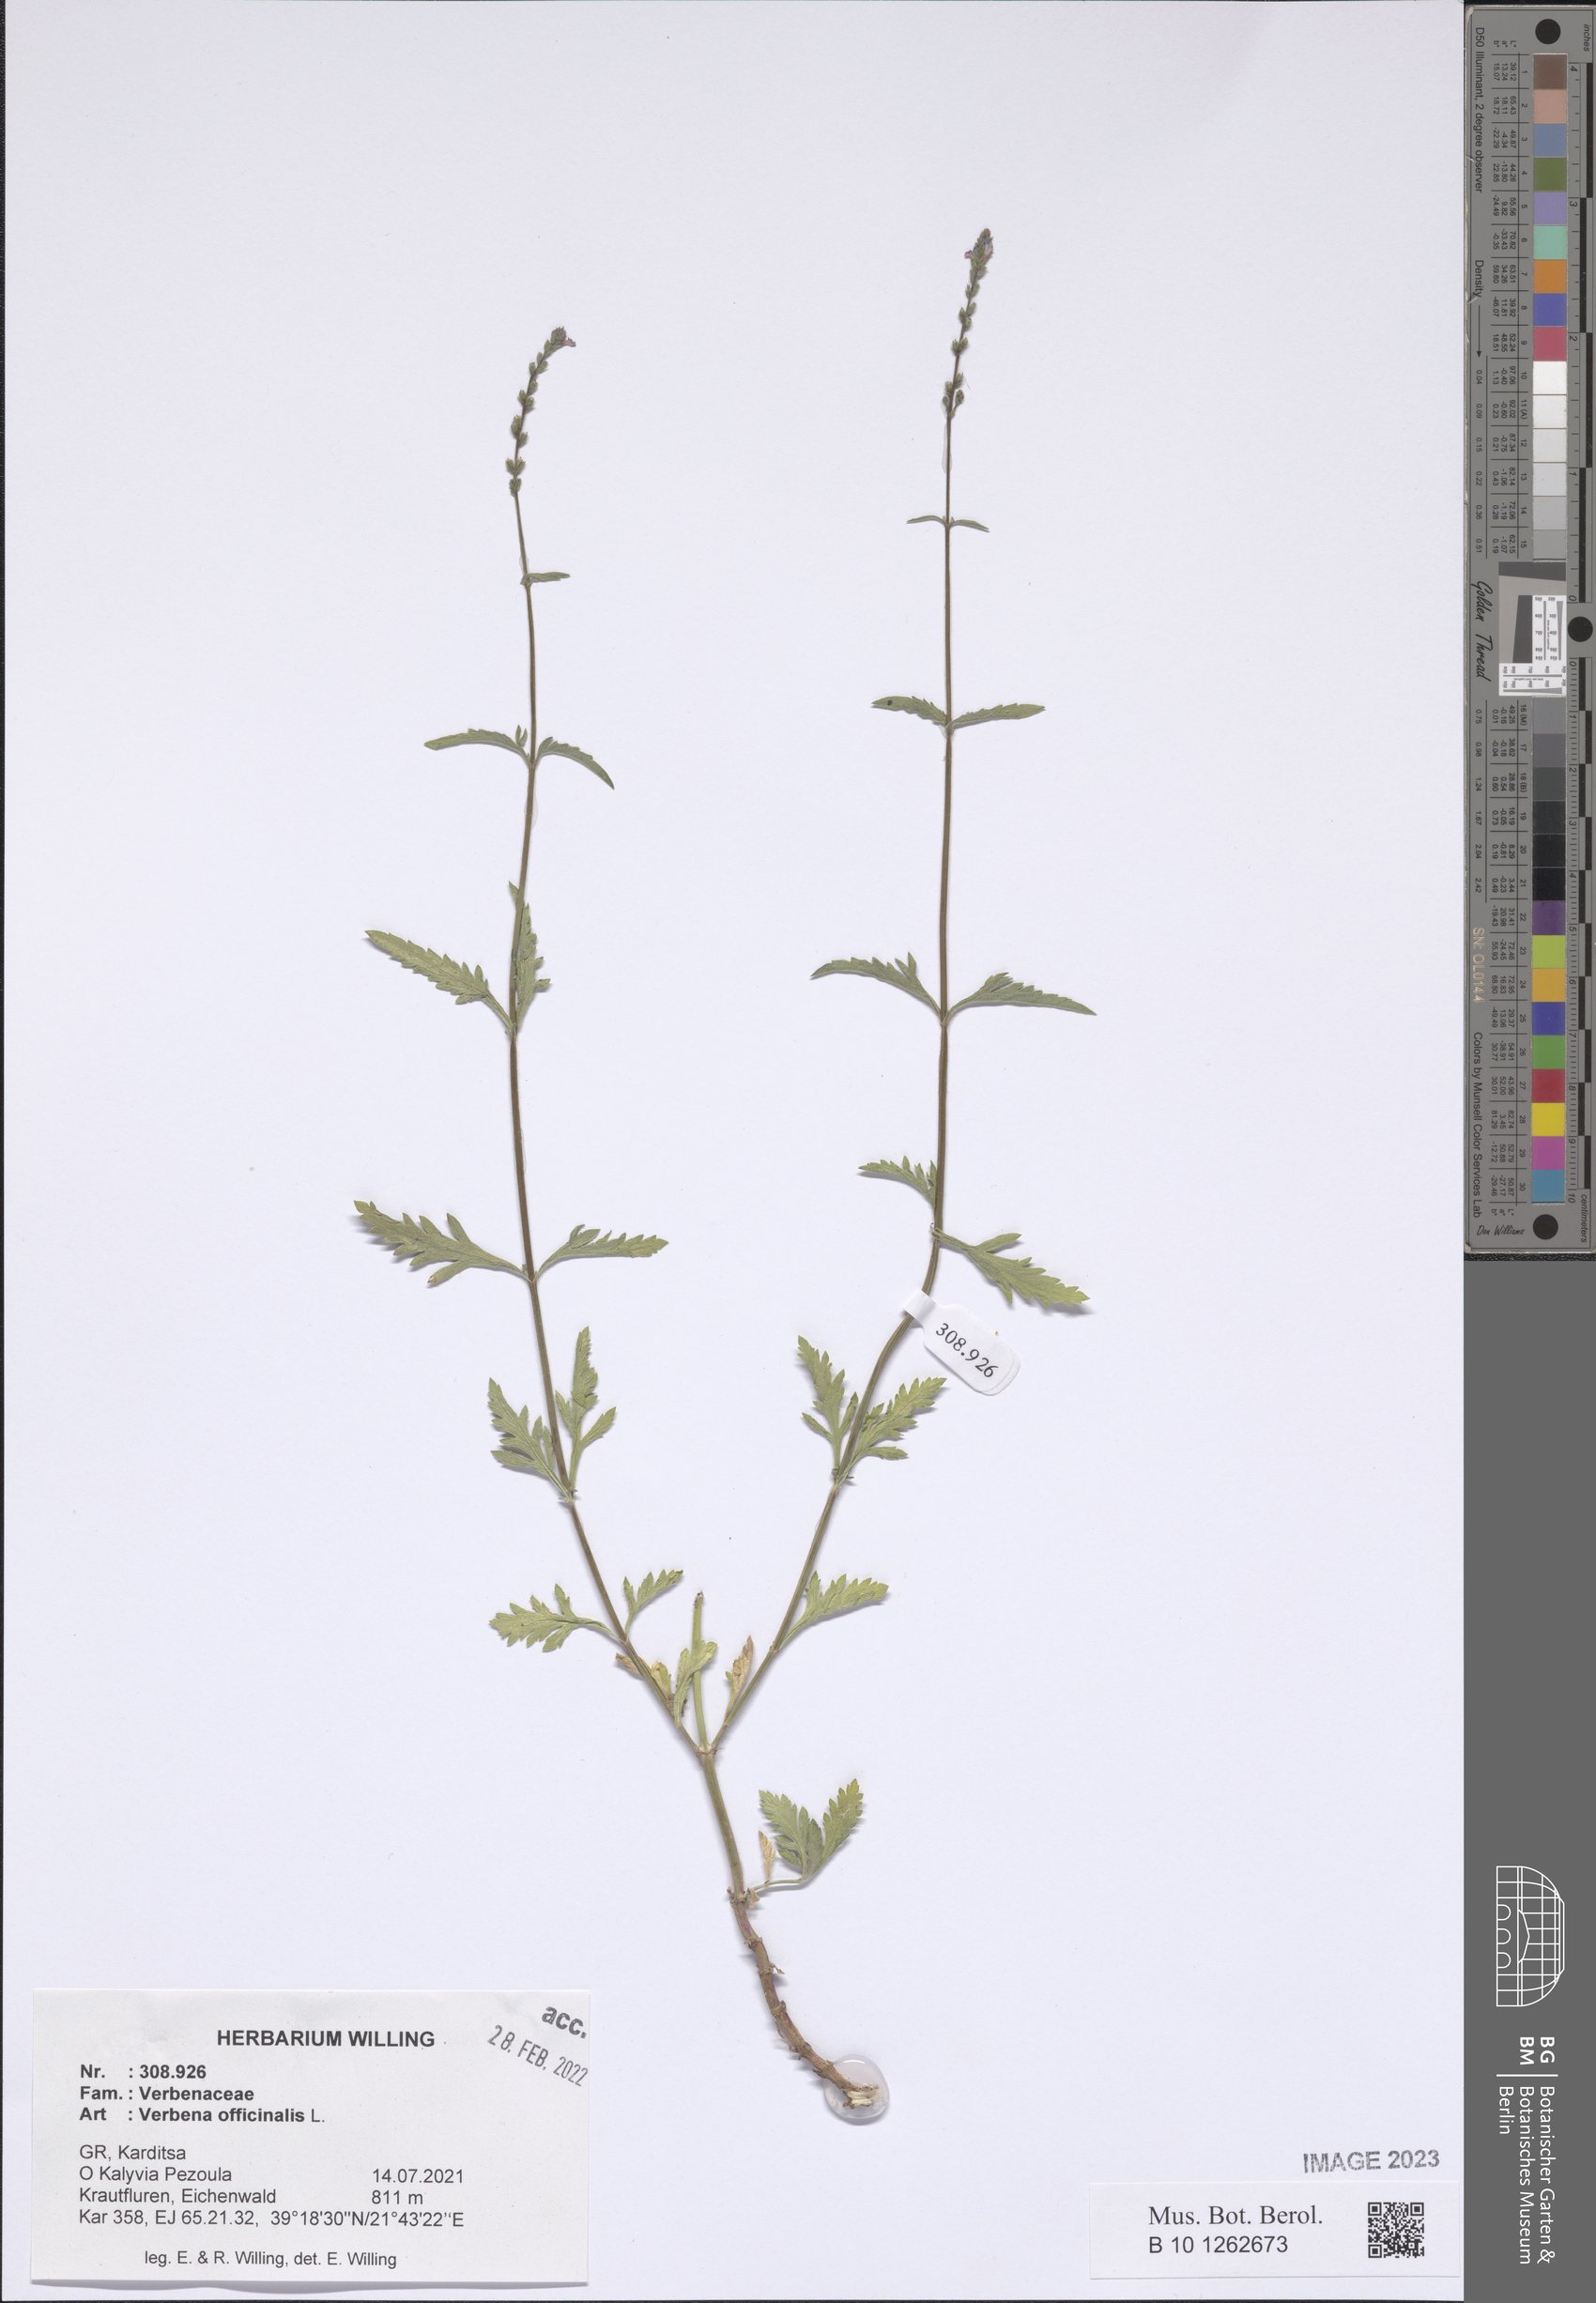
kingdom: Plantae
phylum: Tracheophyta
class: Magnoliopsida
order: Lamiales
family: Verbenaceae
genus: Verbena
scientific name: Verbena officinalis
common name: Vervain
